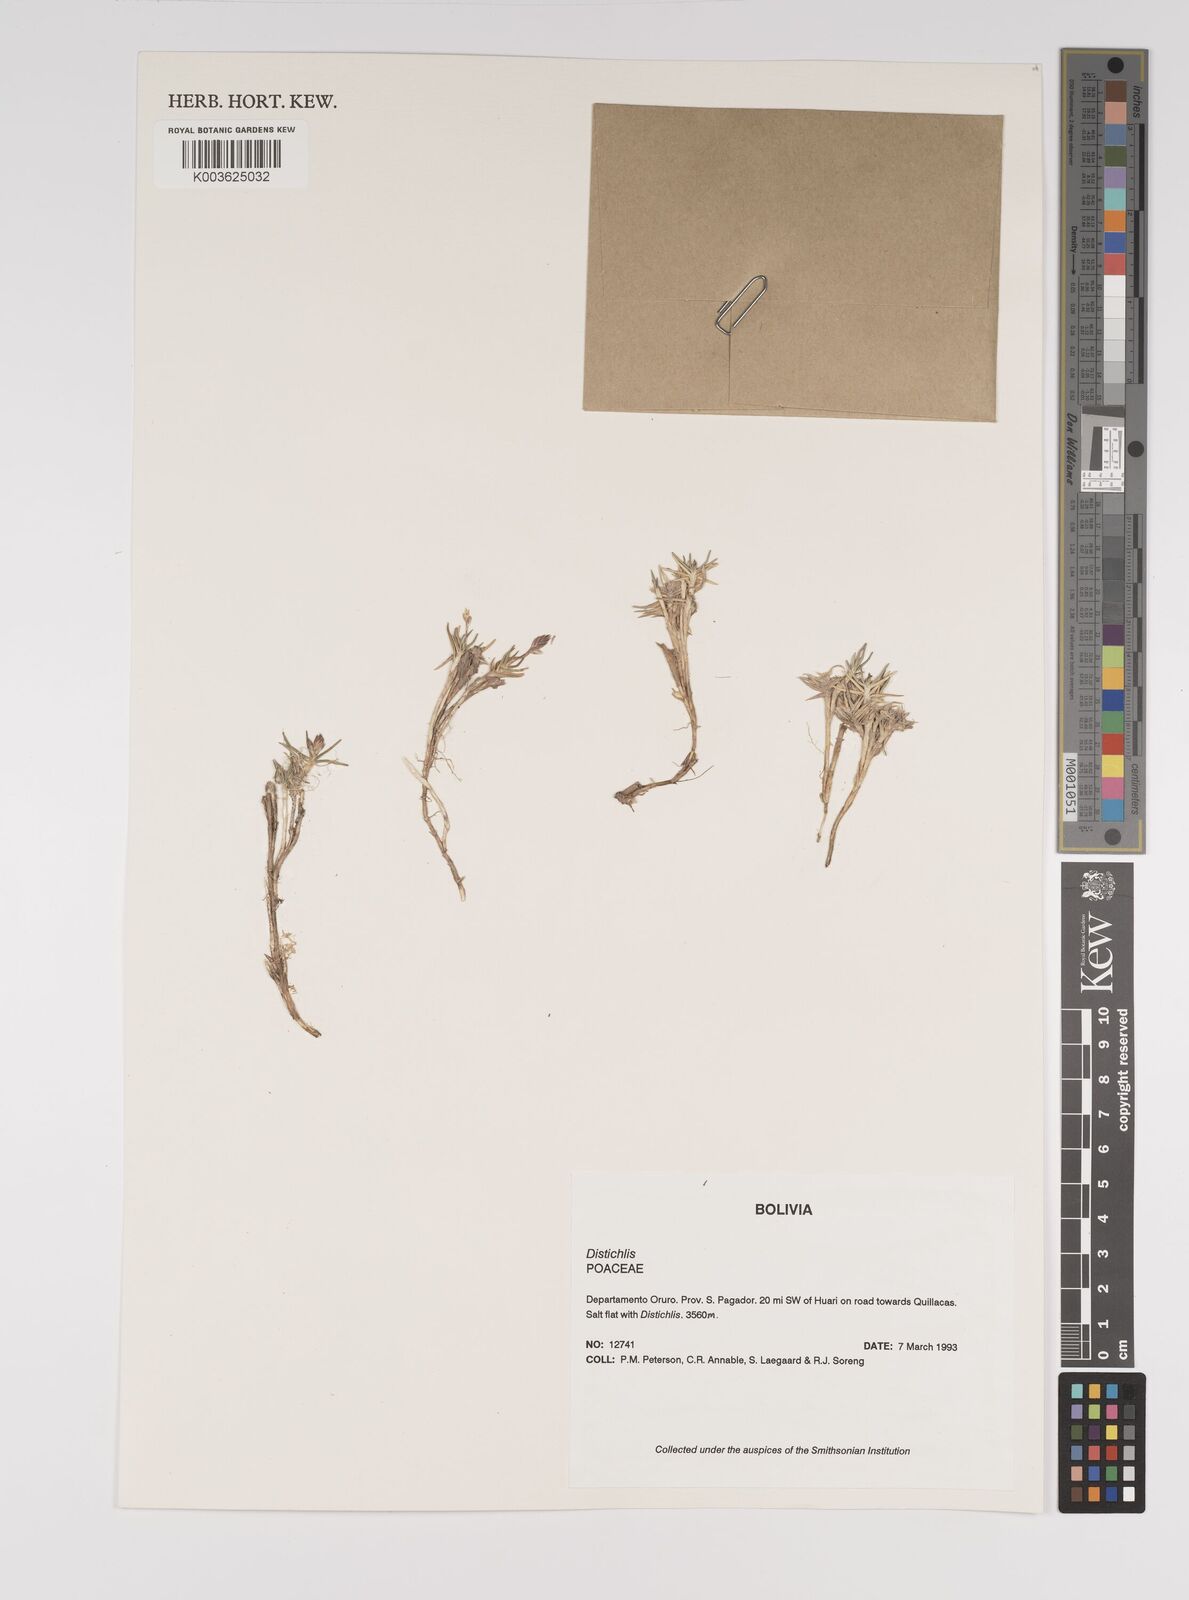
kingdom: Plantae
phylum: Tracheophyta
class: Liliopsida
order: Poales
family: Poaceae
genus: Distichlis
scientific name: Distichlis humilis
